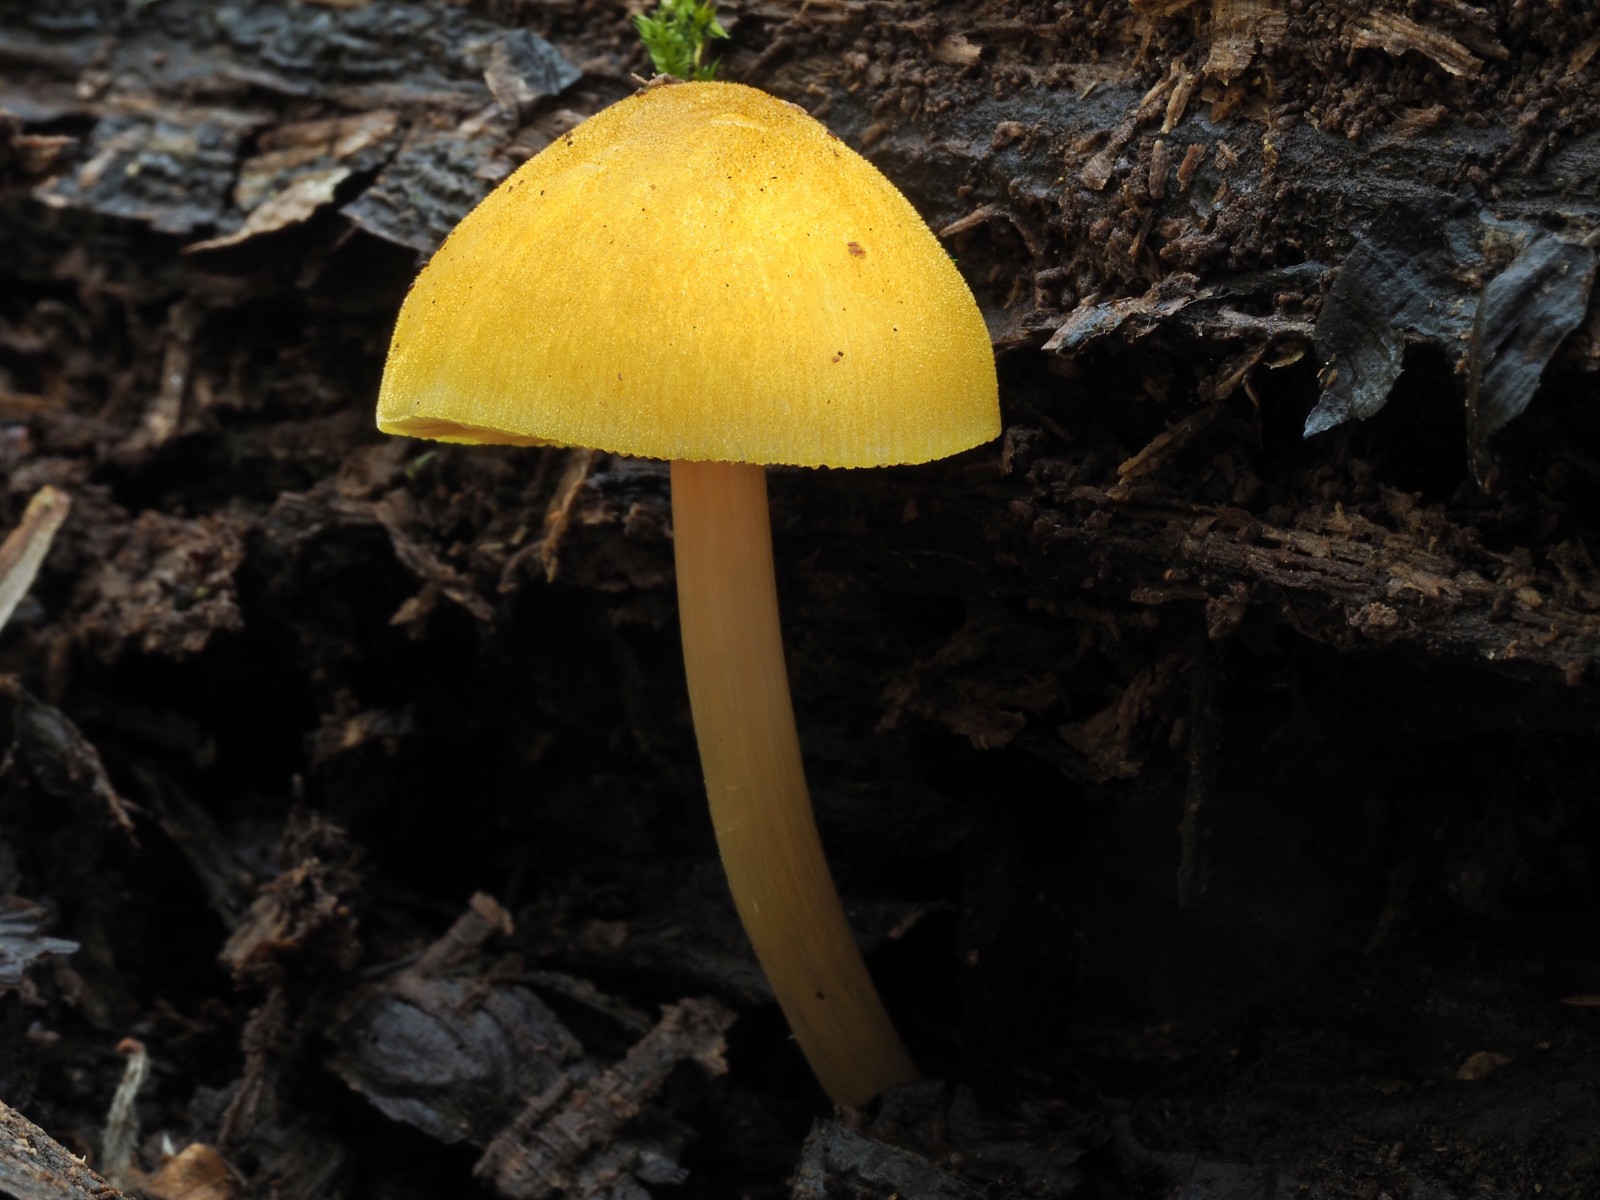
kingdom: Fungi
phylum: Basidiomycota
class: Agaricomycetes
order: Agaricales
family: Pluteaceae
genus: Pluteus
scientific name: Pluteus leoninus
